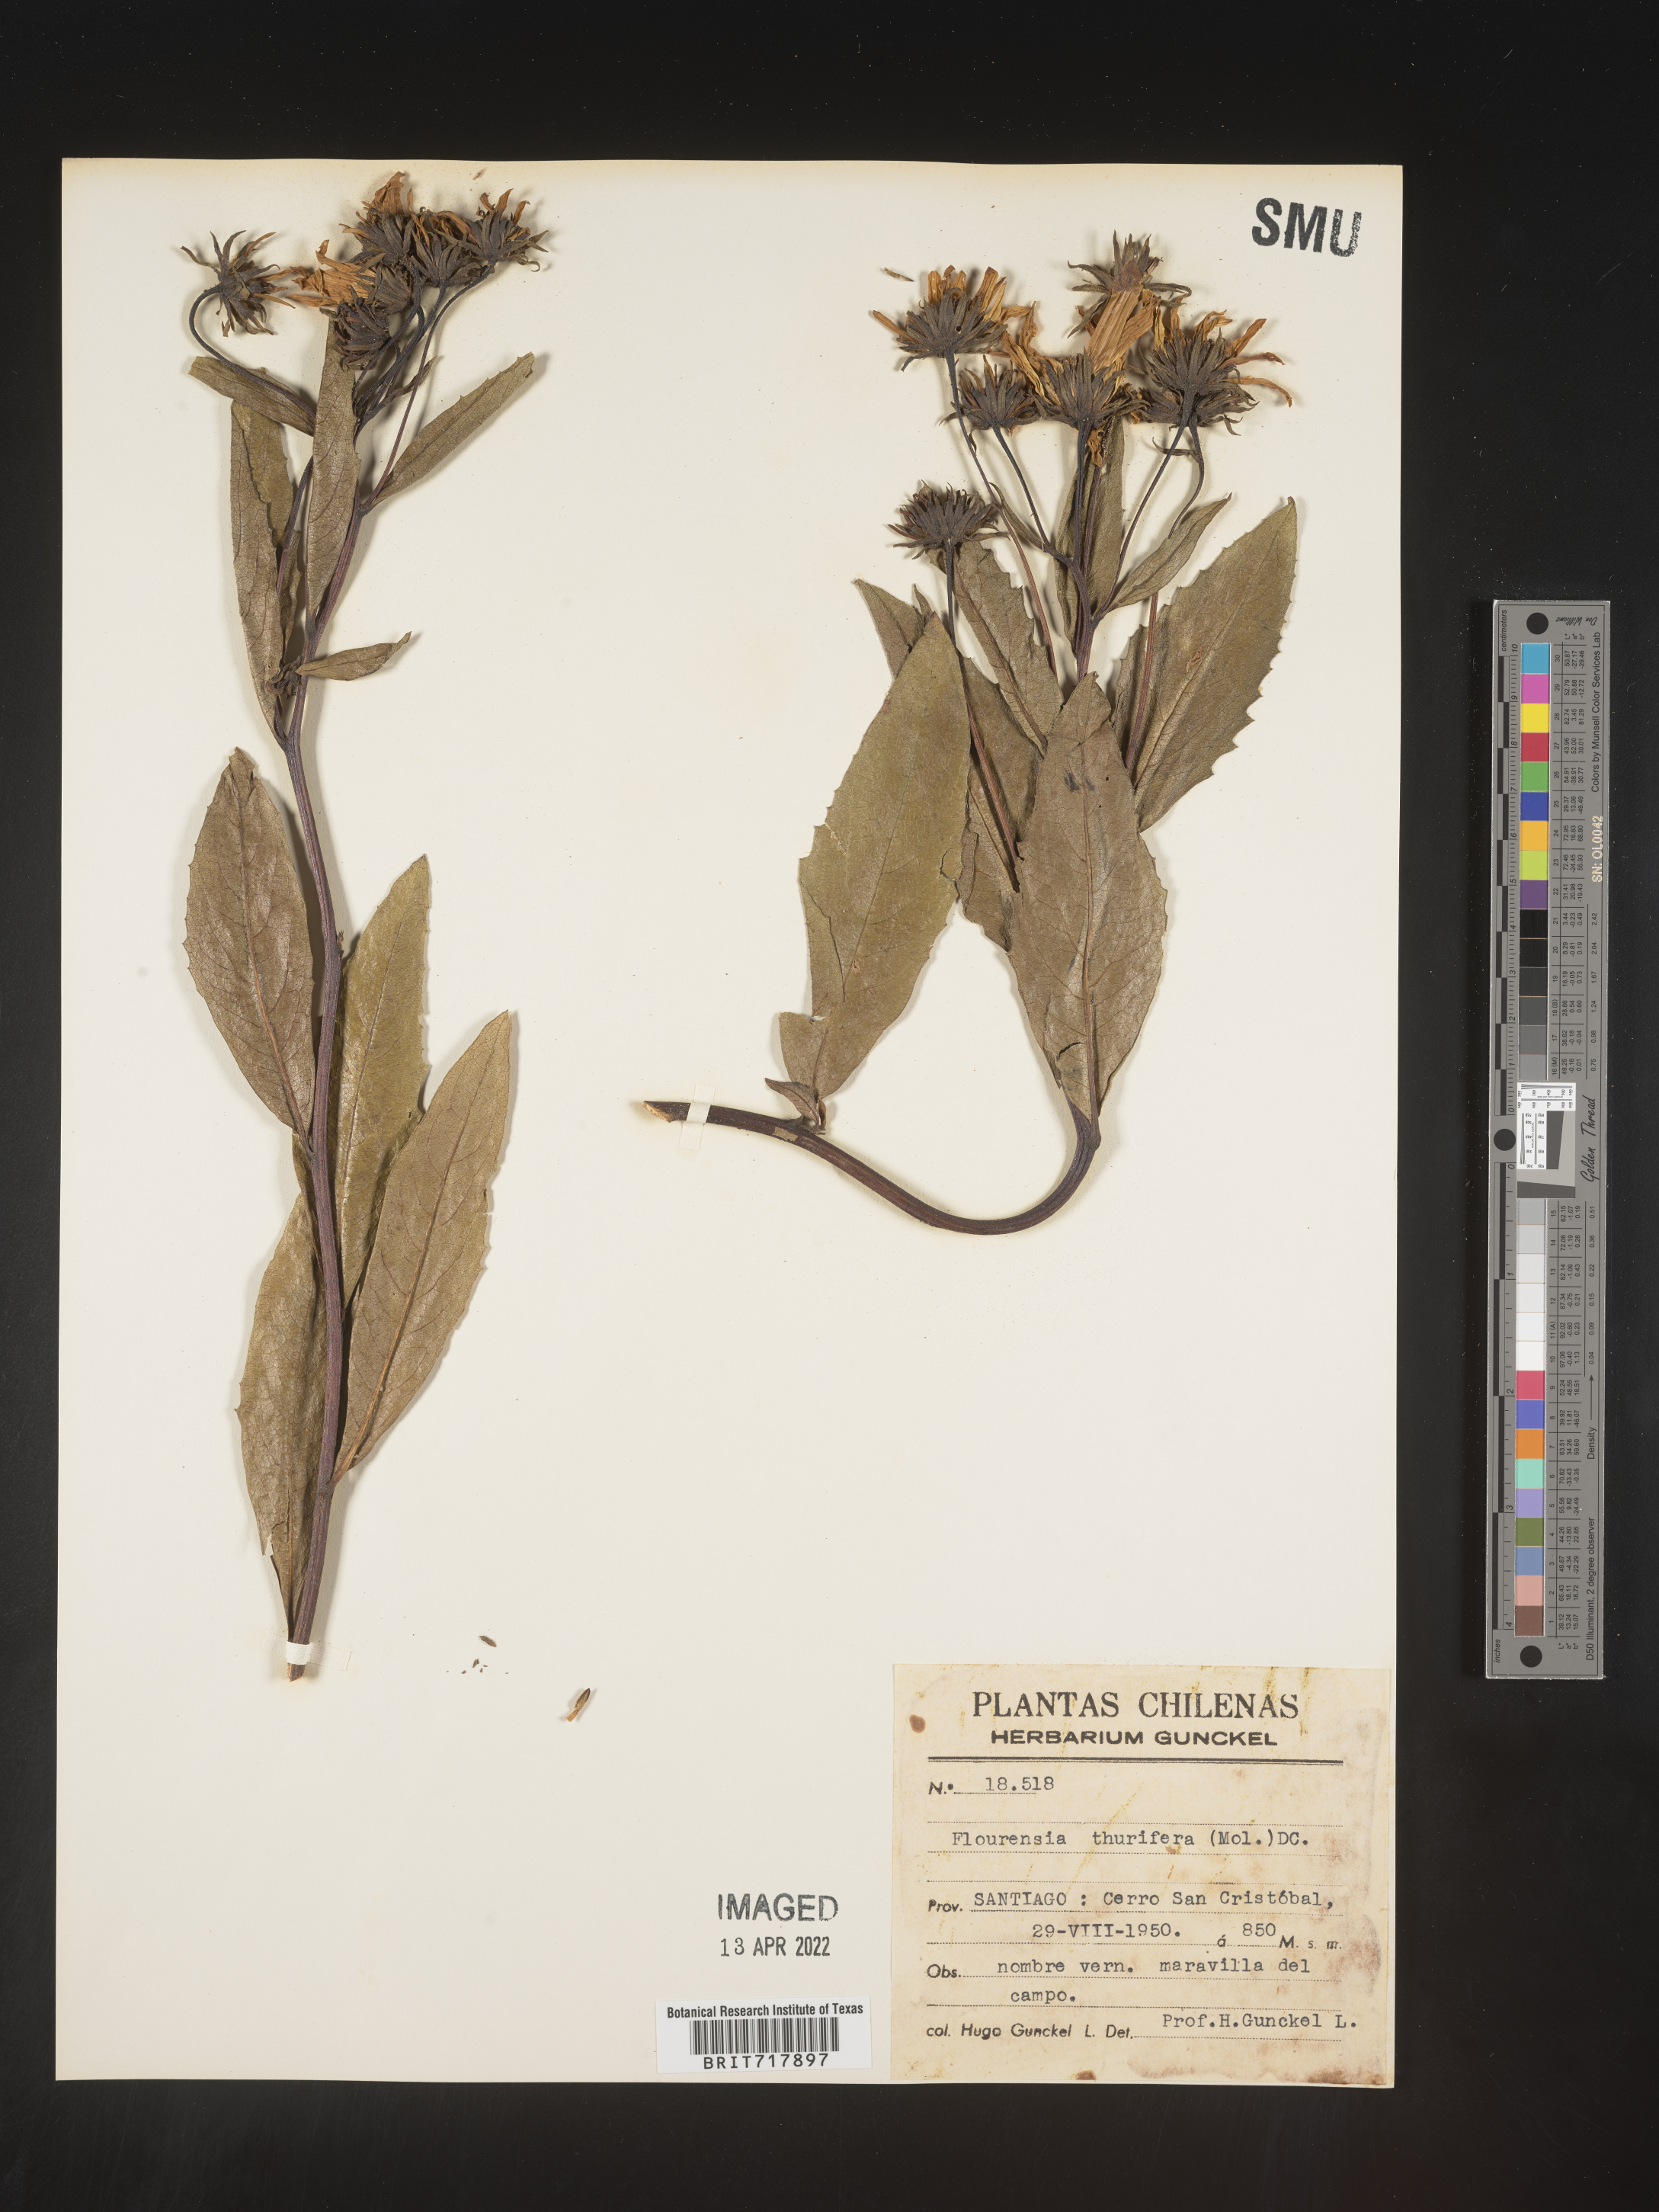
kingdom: Plantae
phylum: Tracheophyta
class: Magnoliopsida
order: Asterales
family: Asteraceae
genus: Flourensia
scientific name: Flourensia
